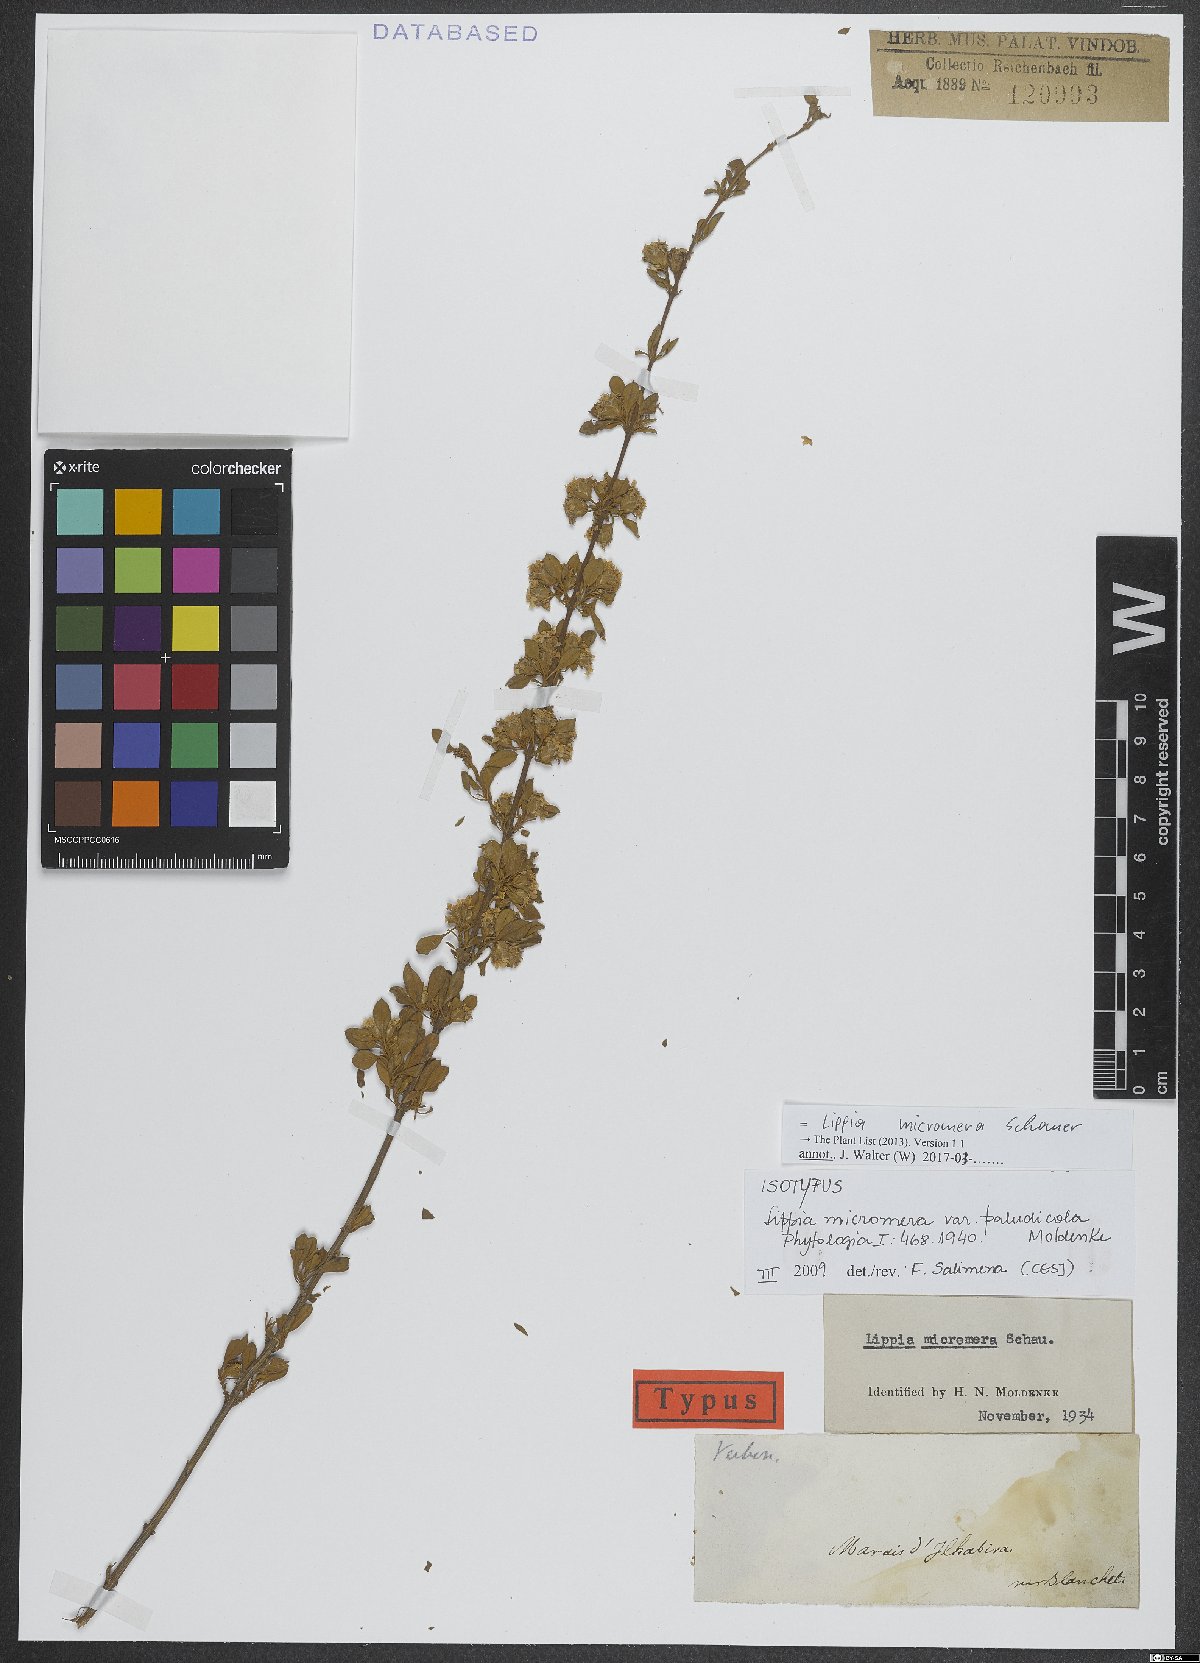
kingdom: Plantae
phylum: Tracheophyta
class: Magnoliopsida
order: Lamiales
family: Verbenaceae
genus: Lippia
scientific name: Lippia micromera
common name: Puerto rican oregano
